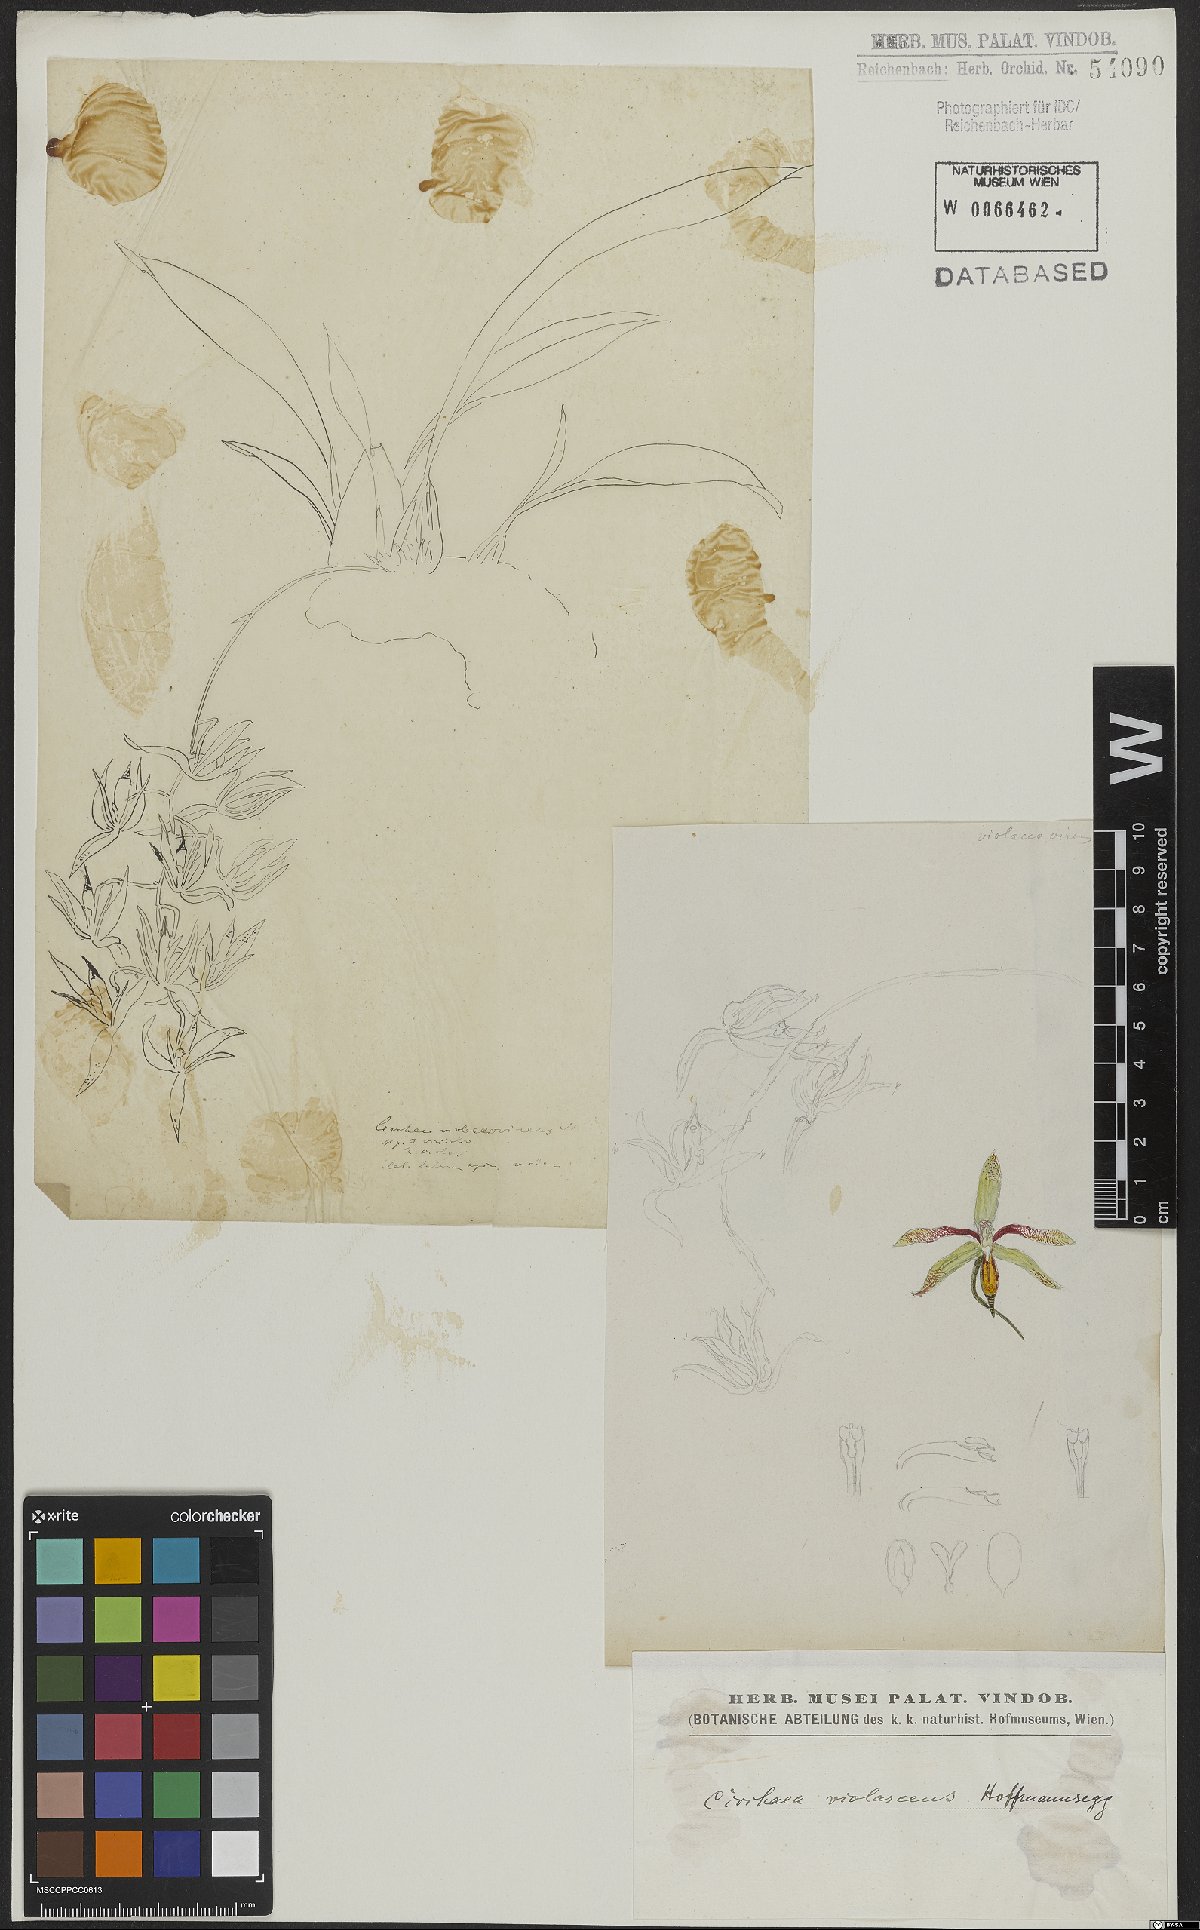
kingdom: Plantae
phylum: Tracheophyta
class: Liliopsida
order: Asparagales
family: Orchidaceae
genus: Cirrhaea
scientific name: Cirrhaea dependens
